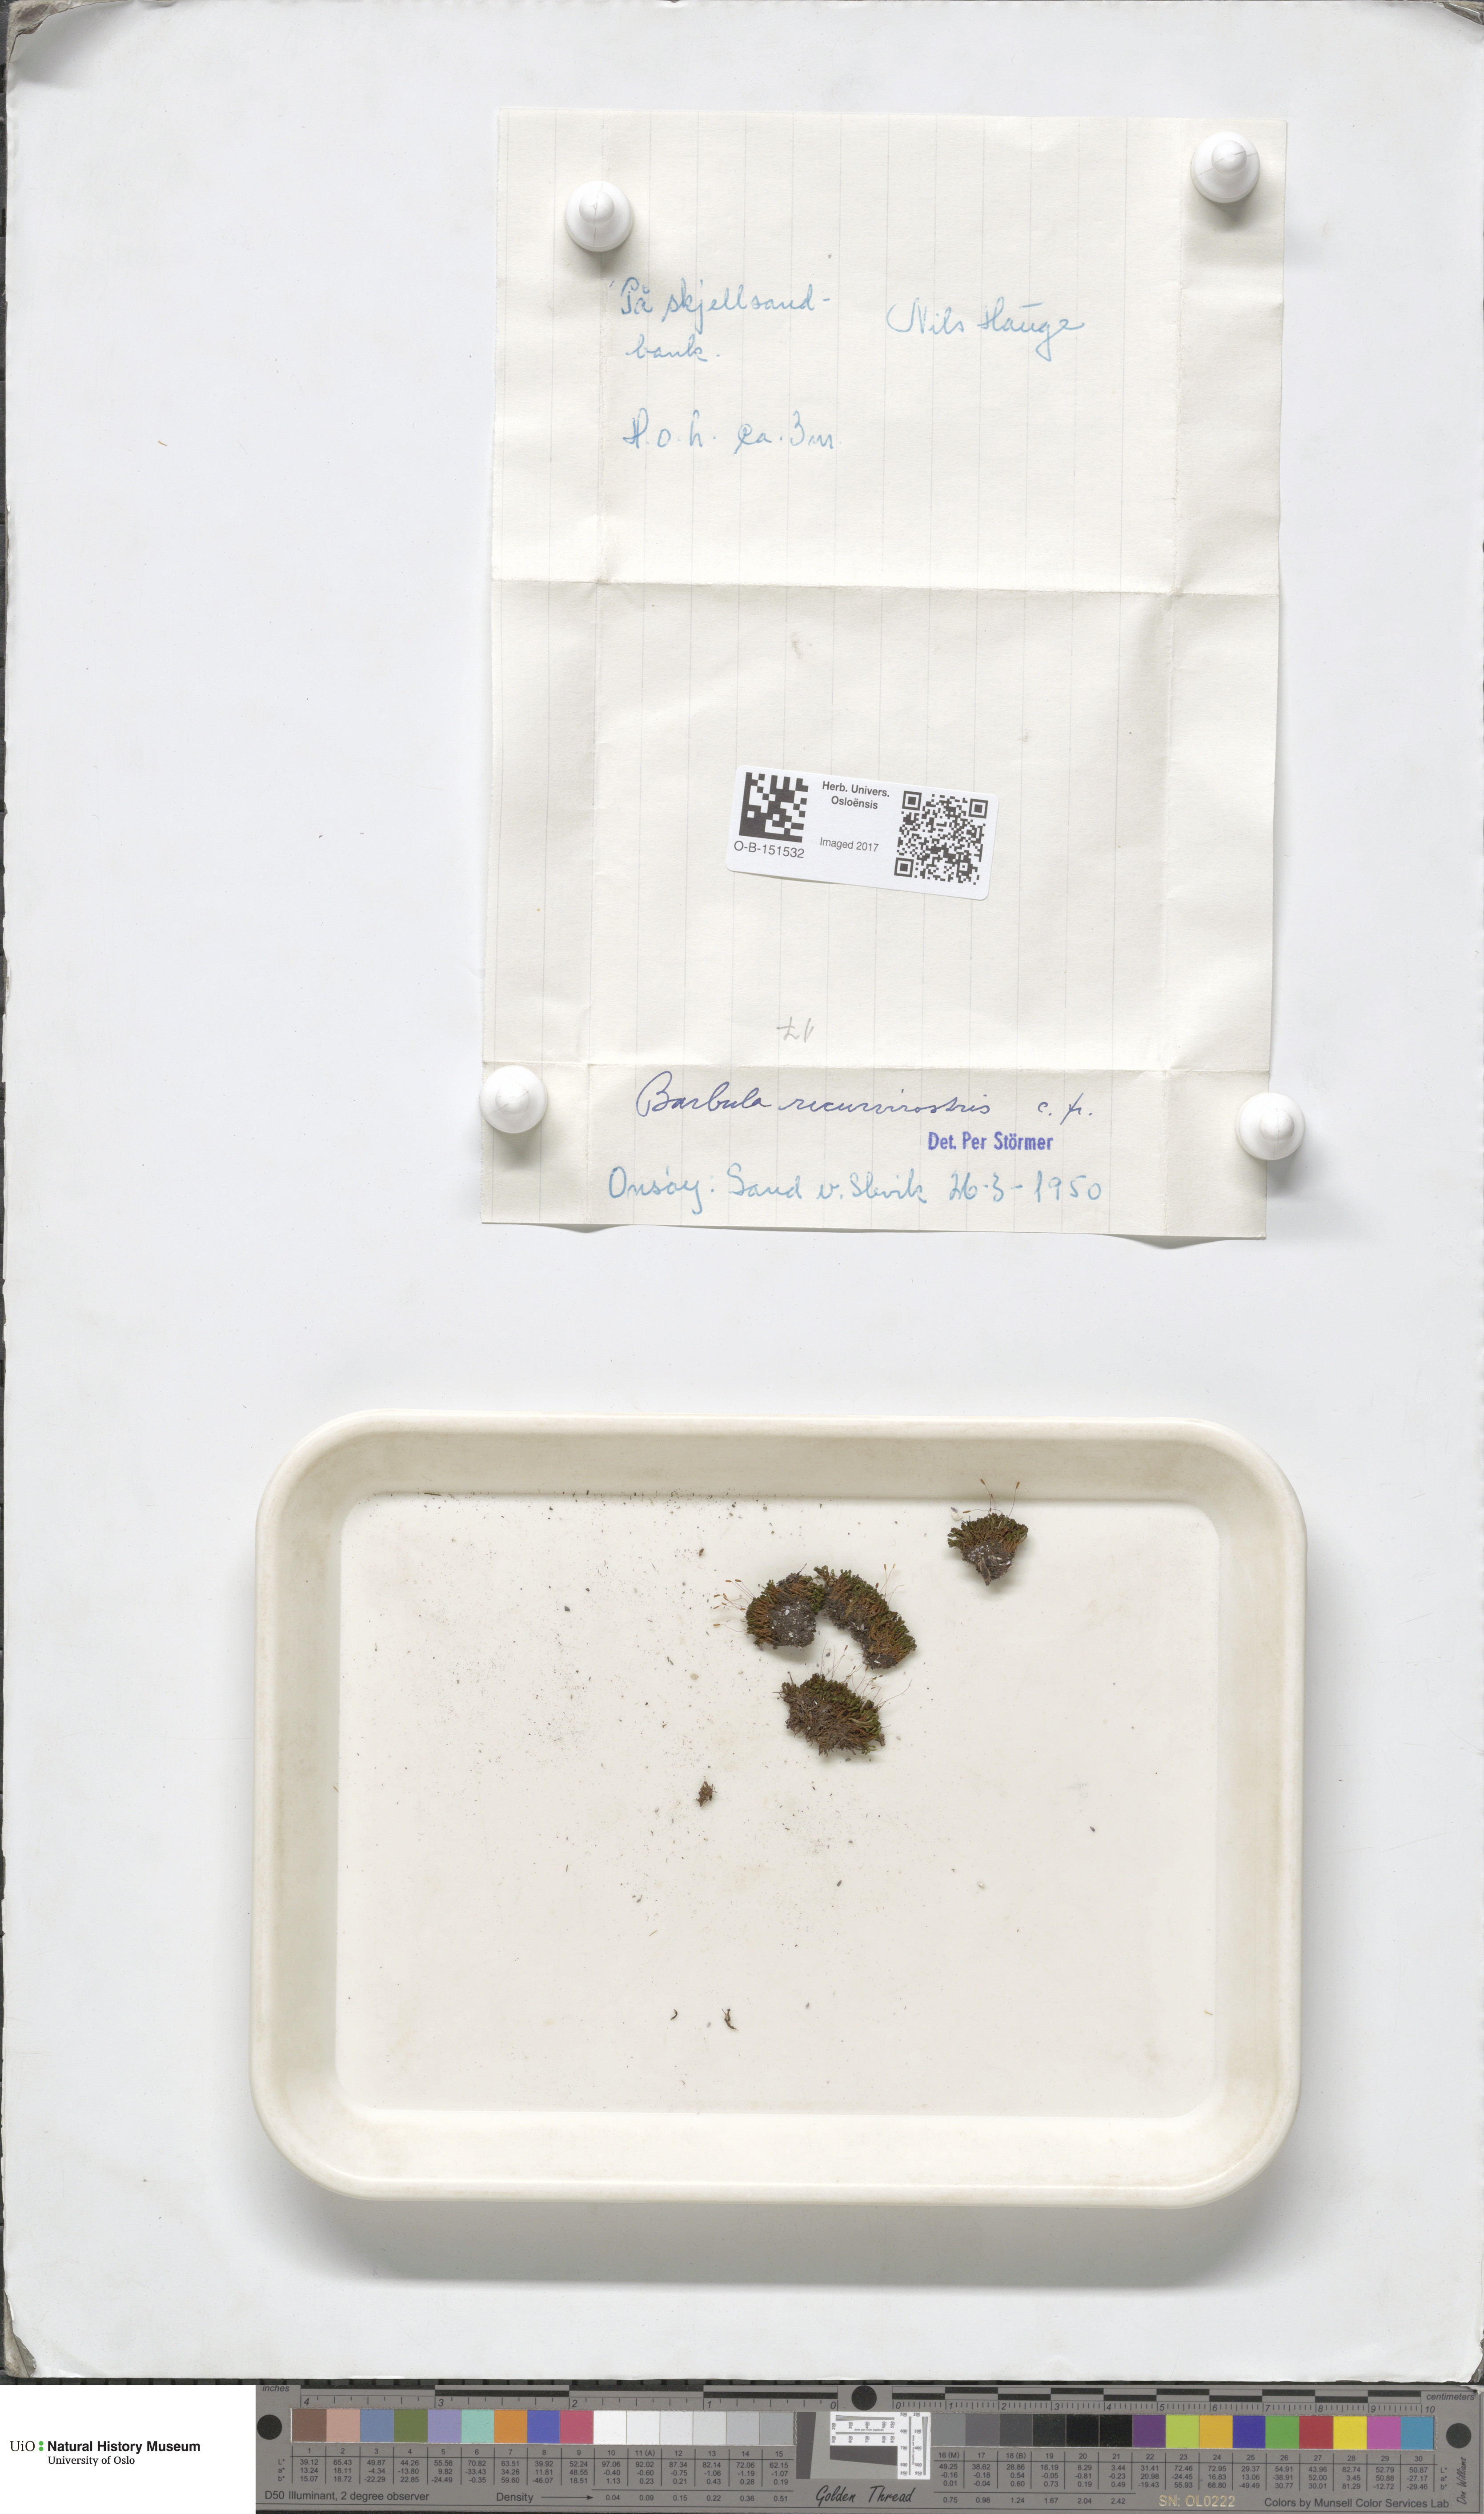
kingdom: Plantae
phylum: Bryophyta
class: Bryopsida
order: Pottiales
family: Pottiaceae
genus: Bryoerythrophyllum
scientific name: Bryoerythrophyllum recurvirostrum
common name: Red beard moss
